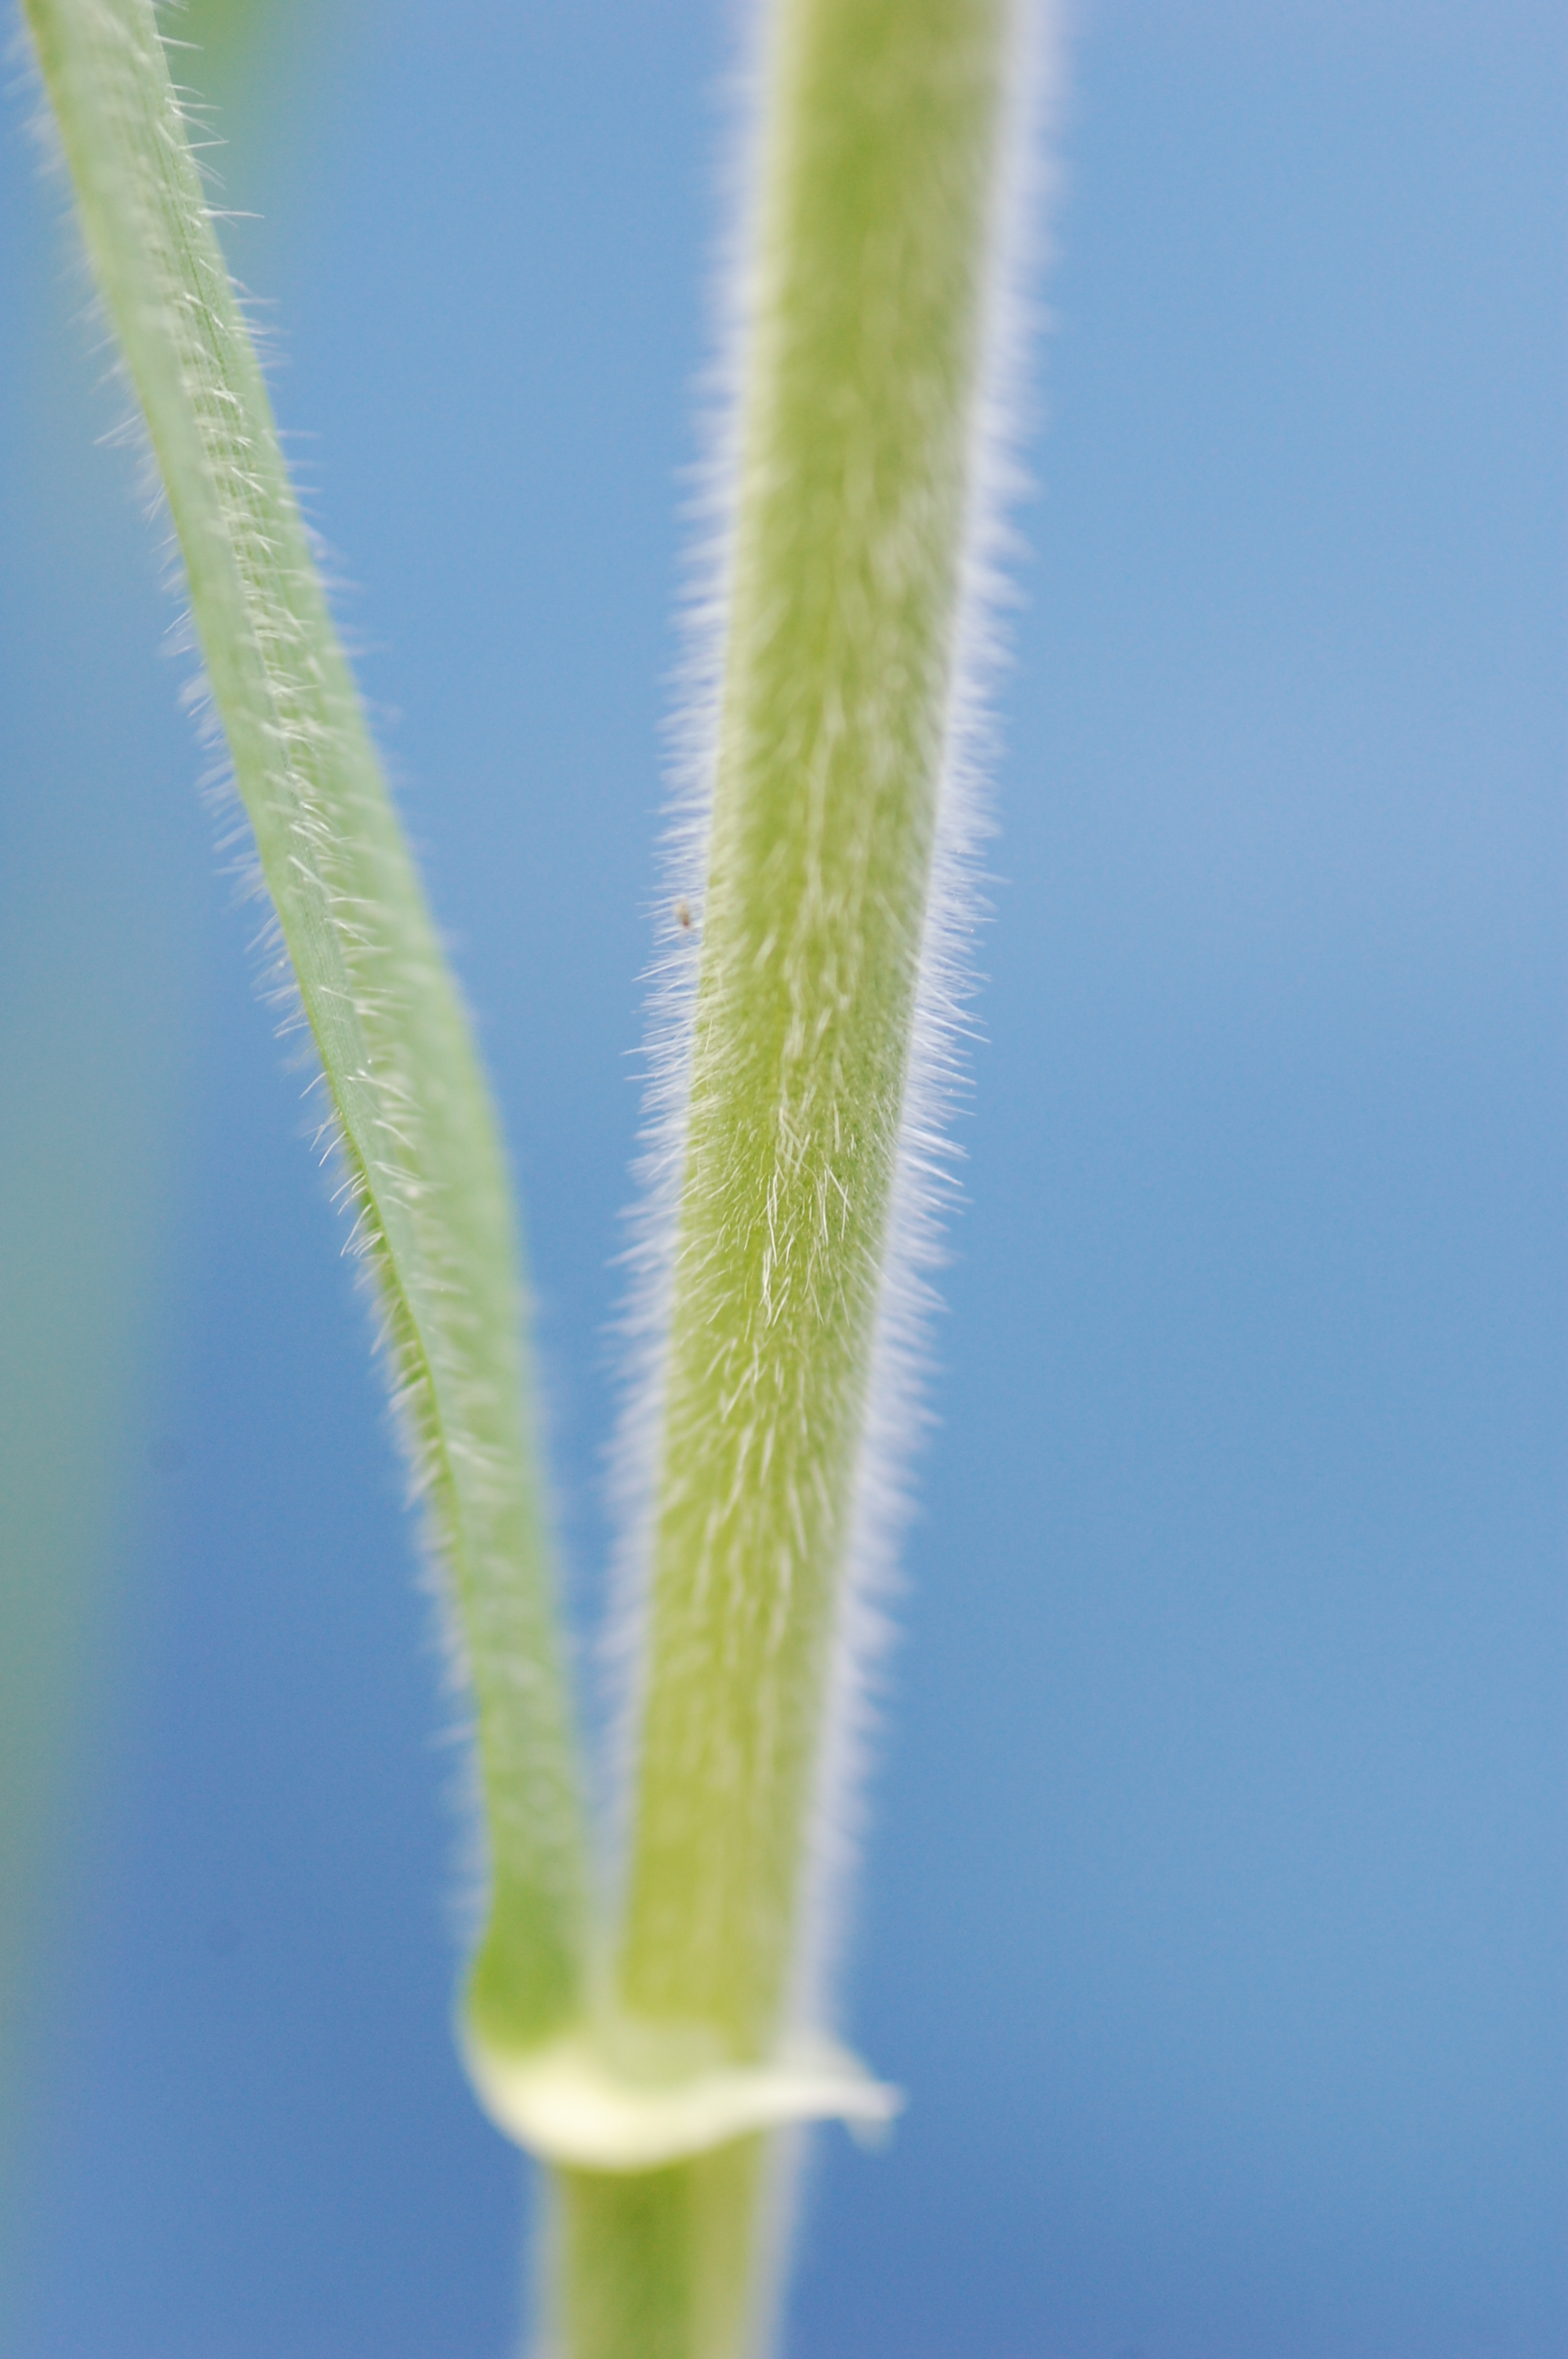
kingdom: Plantae
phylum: Tracheophyta
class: Liliopsida
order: Poales
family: Poaceae
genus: Hordeum
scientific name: Hordeum vulgare
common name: Common barley
